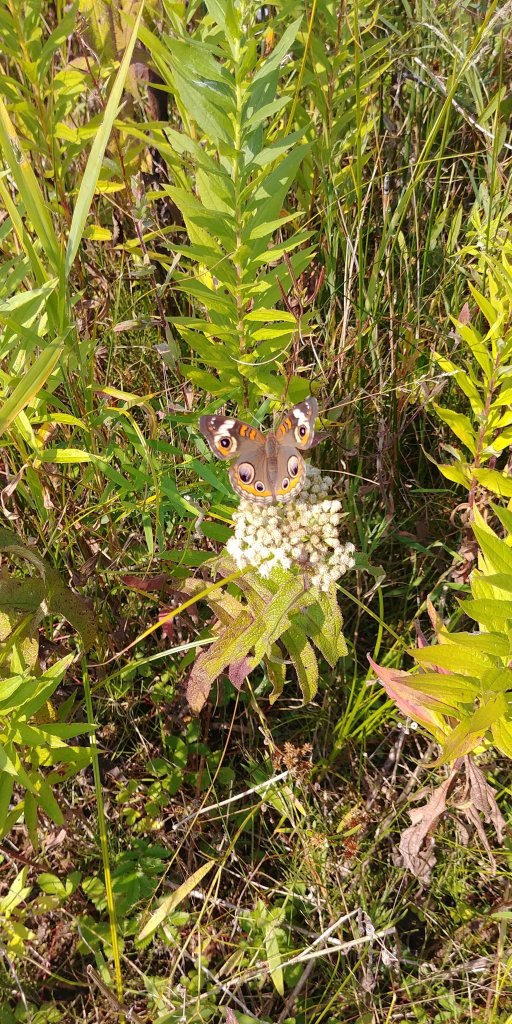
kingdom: Animalia
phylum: Arthropoda
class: Insecta
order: Lepidoptera
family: Nymphalidae
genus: Junonia
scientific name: Junonia coenia
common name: Common Buckeye
